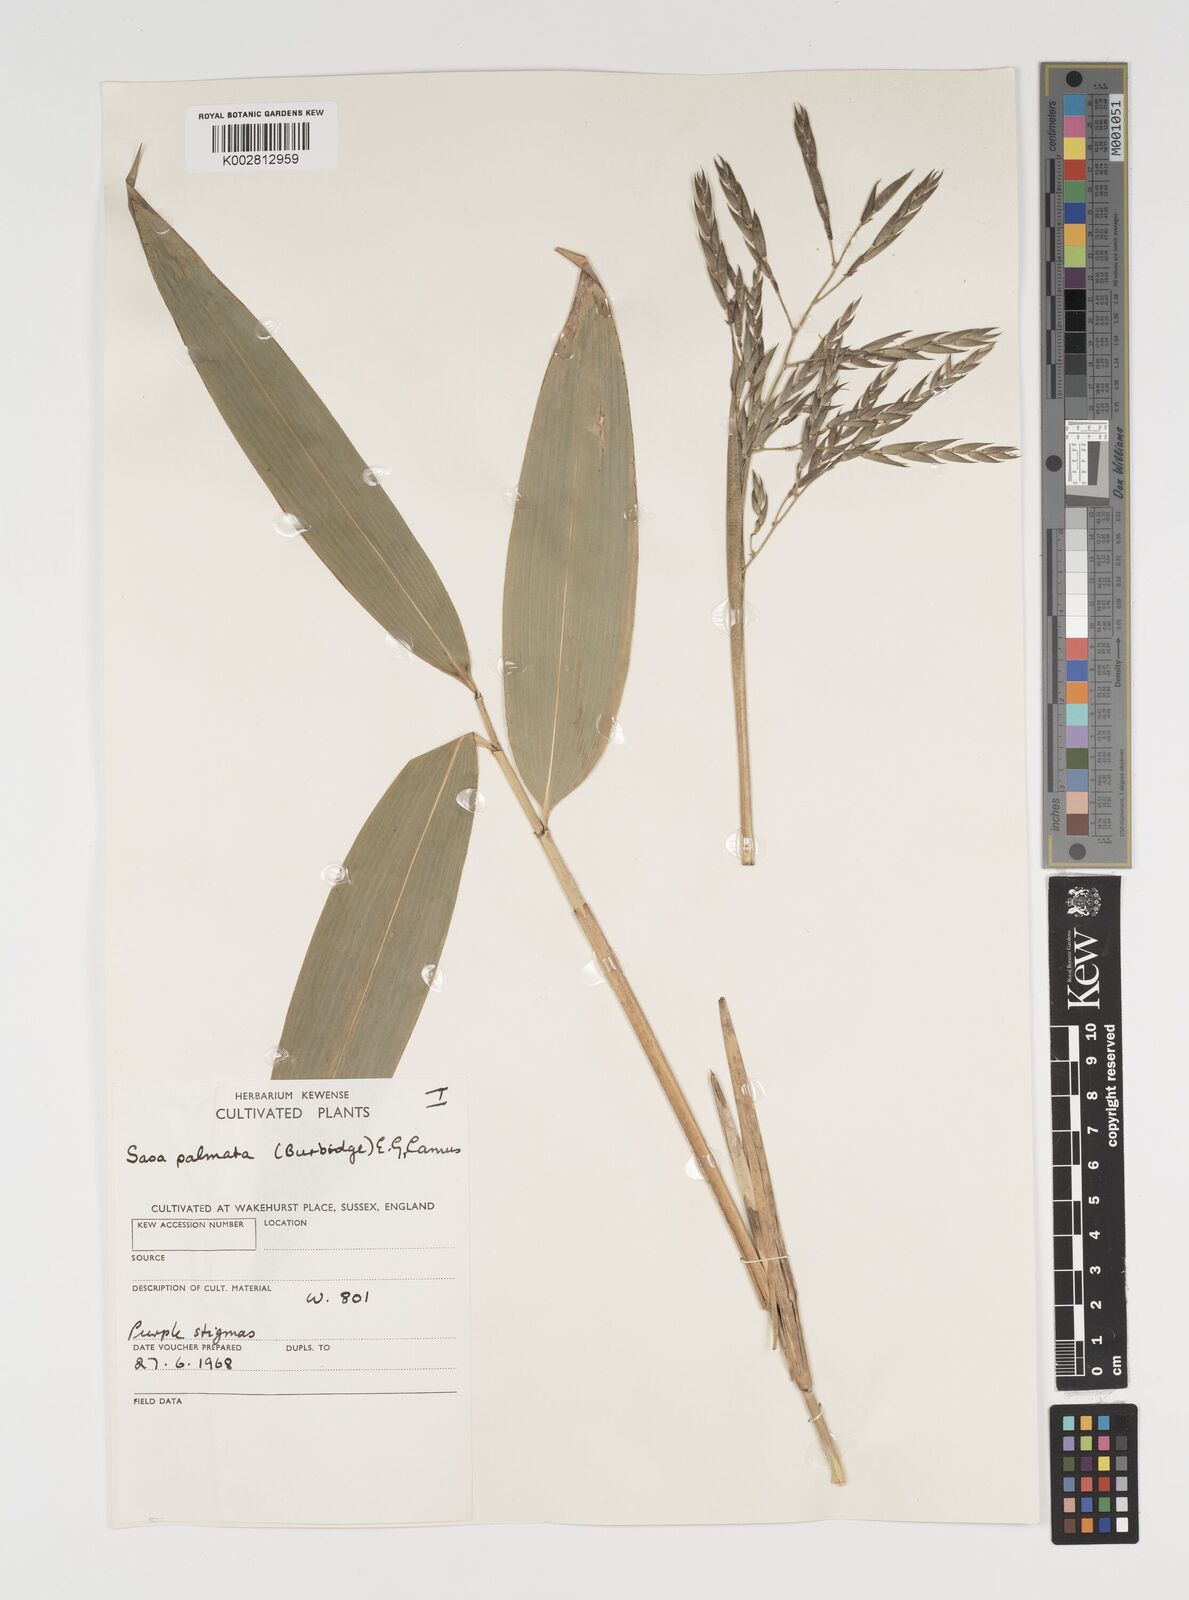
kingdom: Plantae
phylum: Tracheophyta
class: Liliopsida
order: Poales
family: Poaceae
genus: Sasa
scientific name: Sasa palmata
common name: Broad-leaved bamboo
